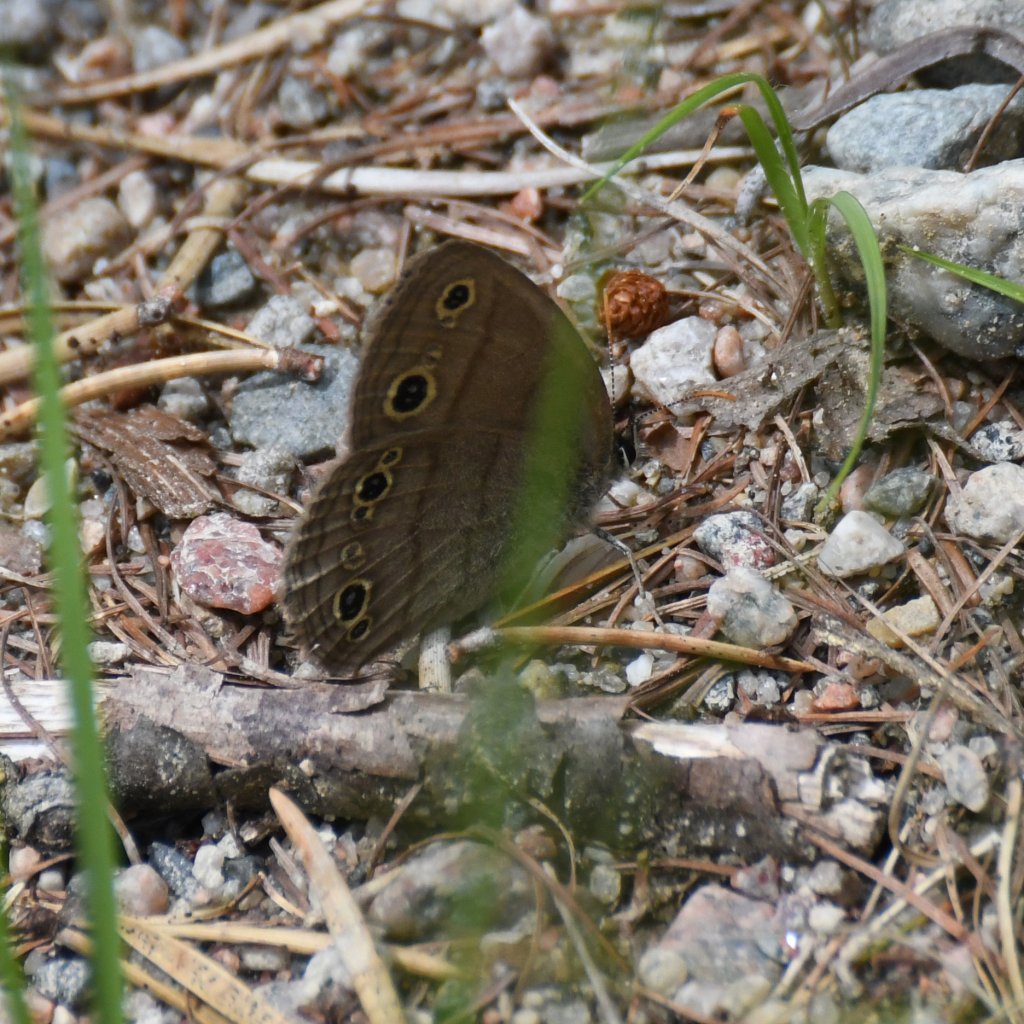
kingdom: Animalia
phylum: Arthropoda
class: Insecta
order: Lepidoptera
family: Nymphalidae
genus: Euptychia
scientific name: Euptychia cymela
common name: Little Wood Satyr
